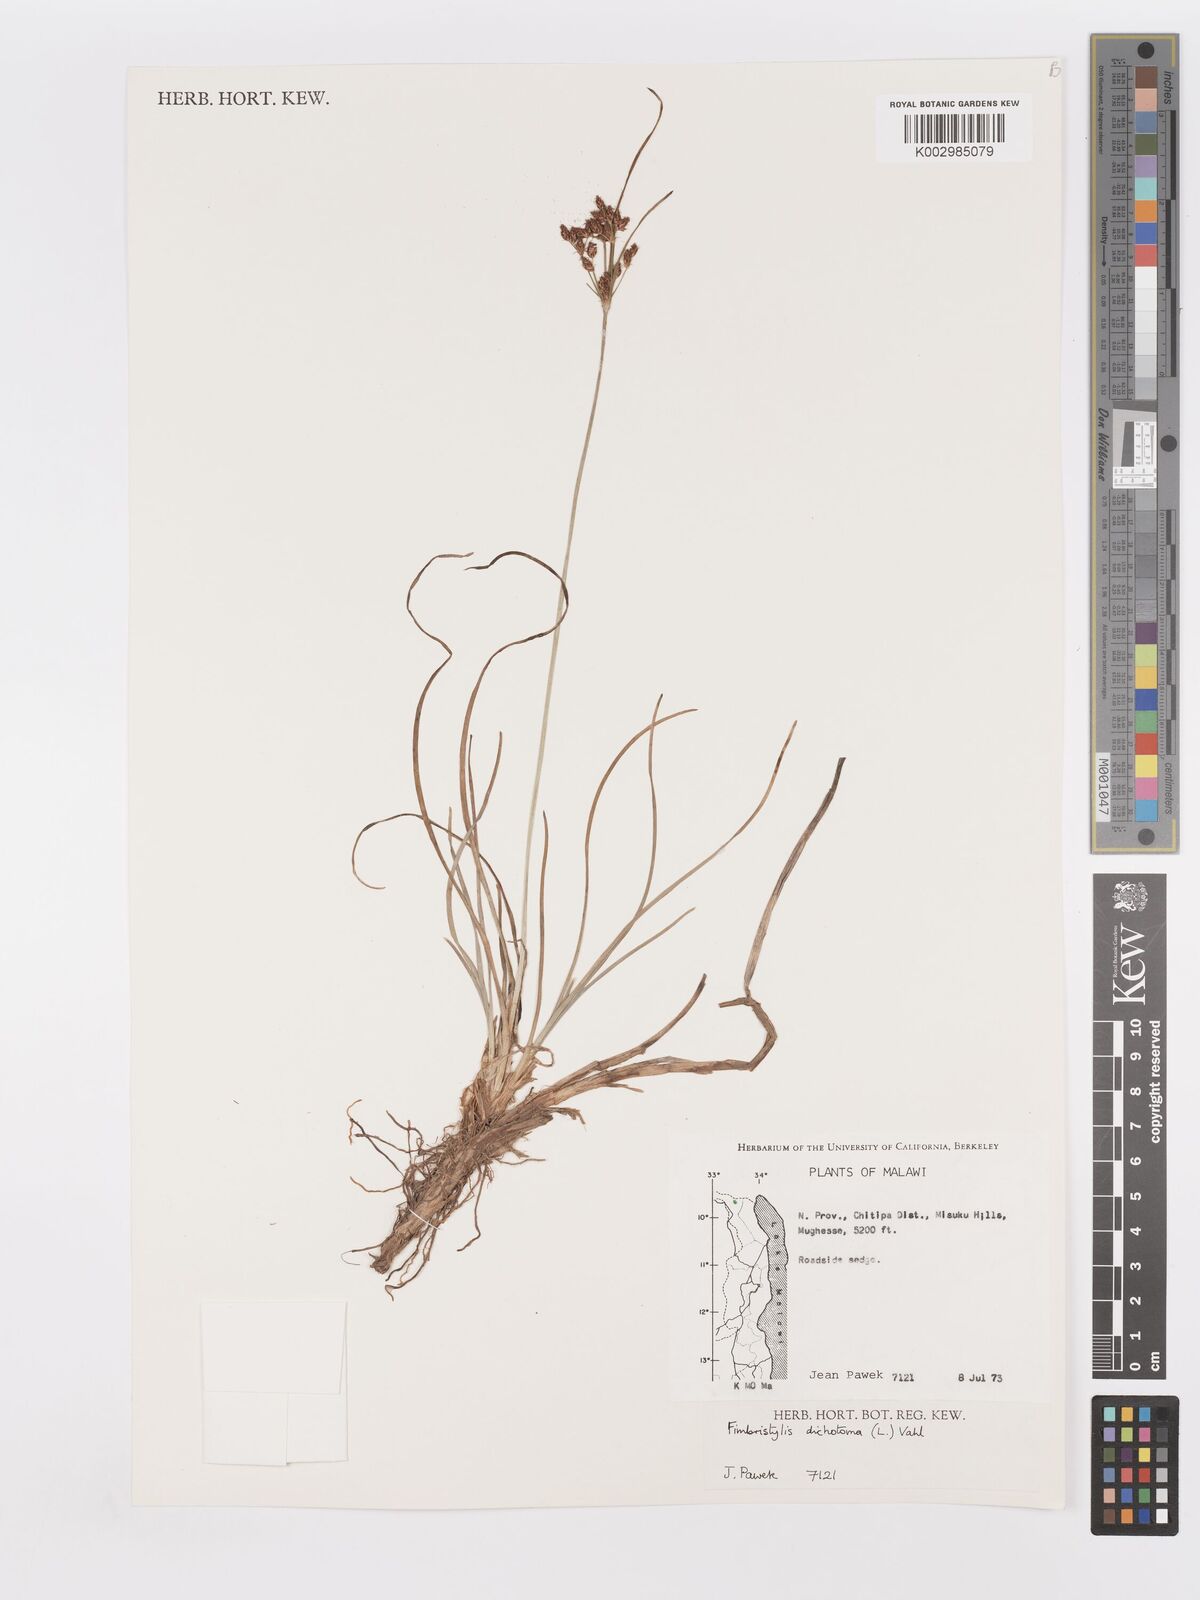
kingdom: Plantae
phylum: Tracheophyta
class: Liliopsida
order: Poales
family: Cyperaceae
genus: Fimbristylis
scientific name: Fimbristylis dichotoma
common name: Forked fimbry
